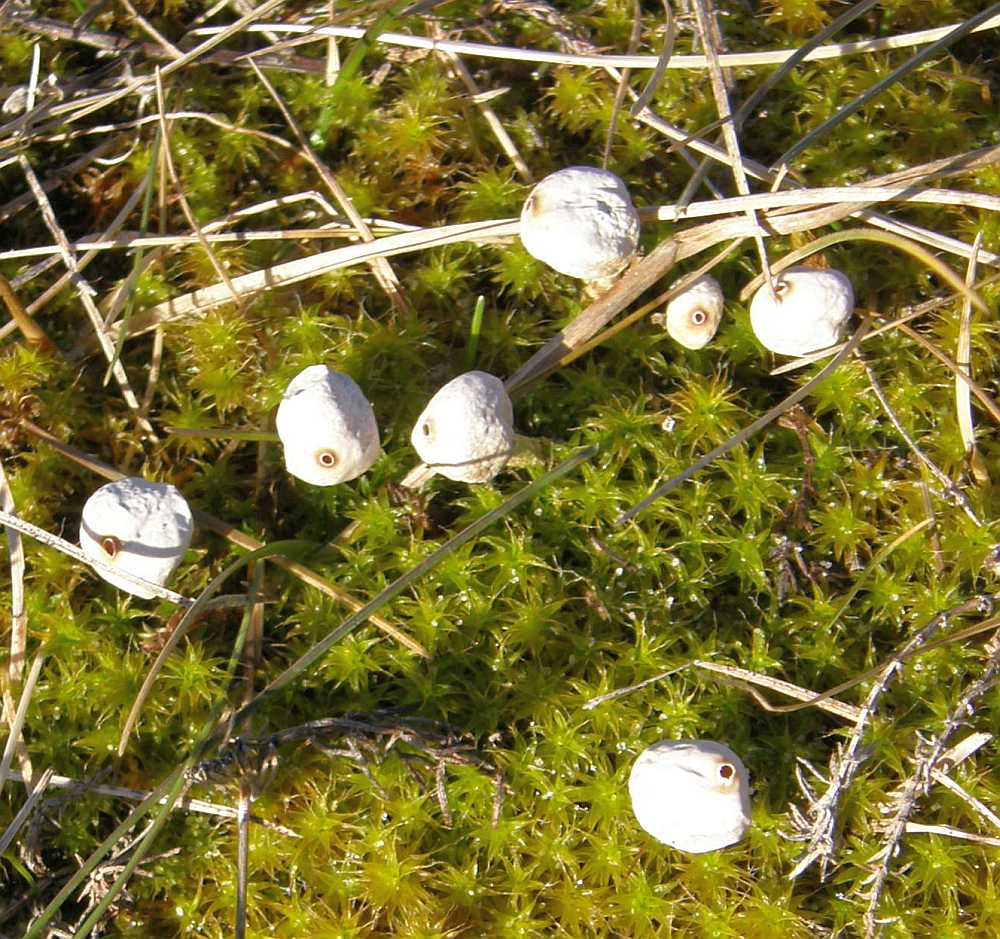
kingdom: Fungi
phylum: Basidiomycota
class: Agaricomycetes
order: Agaricales
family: Agaricaceae
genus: Tulostoma
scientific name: Tulostoma brumale
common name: vinter-stilkbovist
